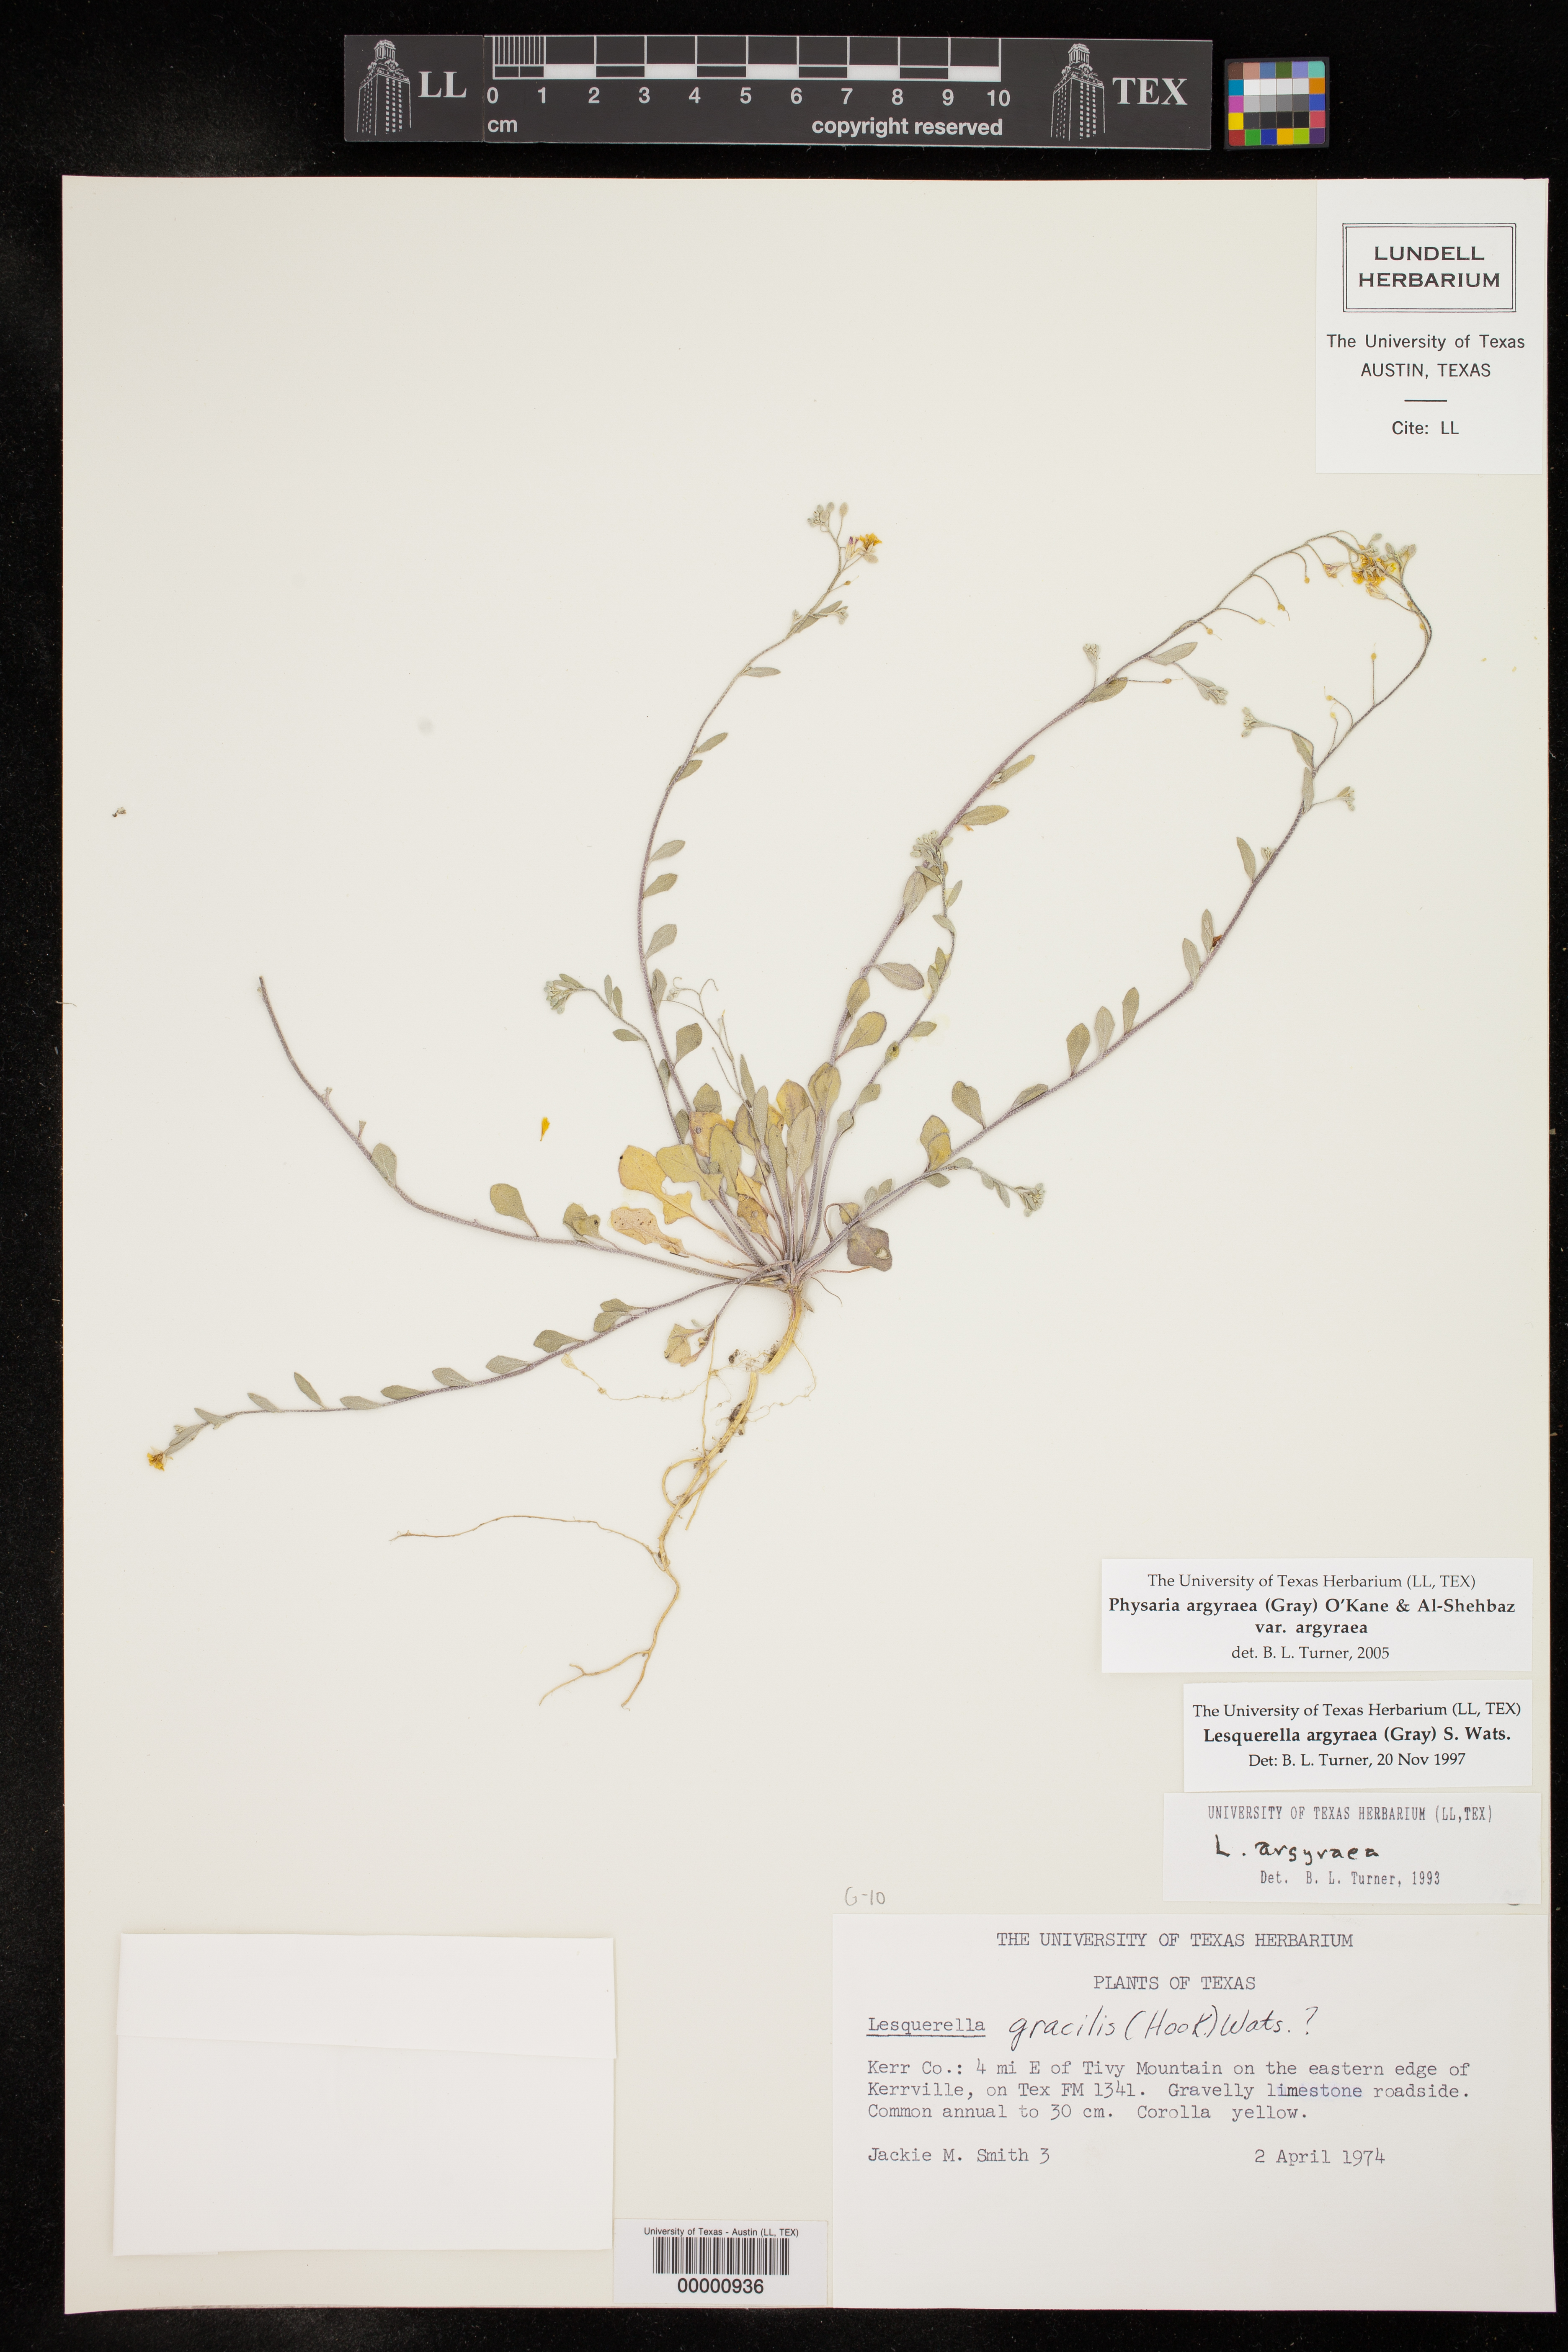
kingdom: Plantae
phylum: Tracheophyta
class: Magnoliopsida
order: Brassicales
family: Brassicaceae
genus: Physaria
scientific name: Physaria argyraea
